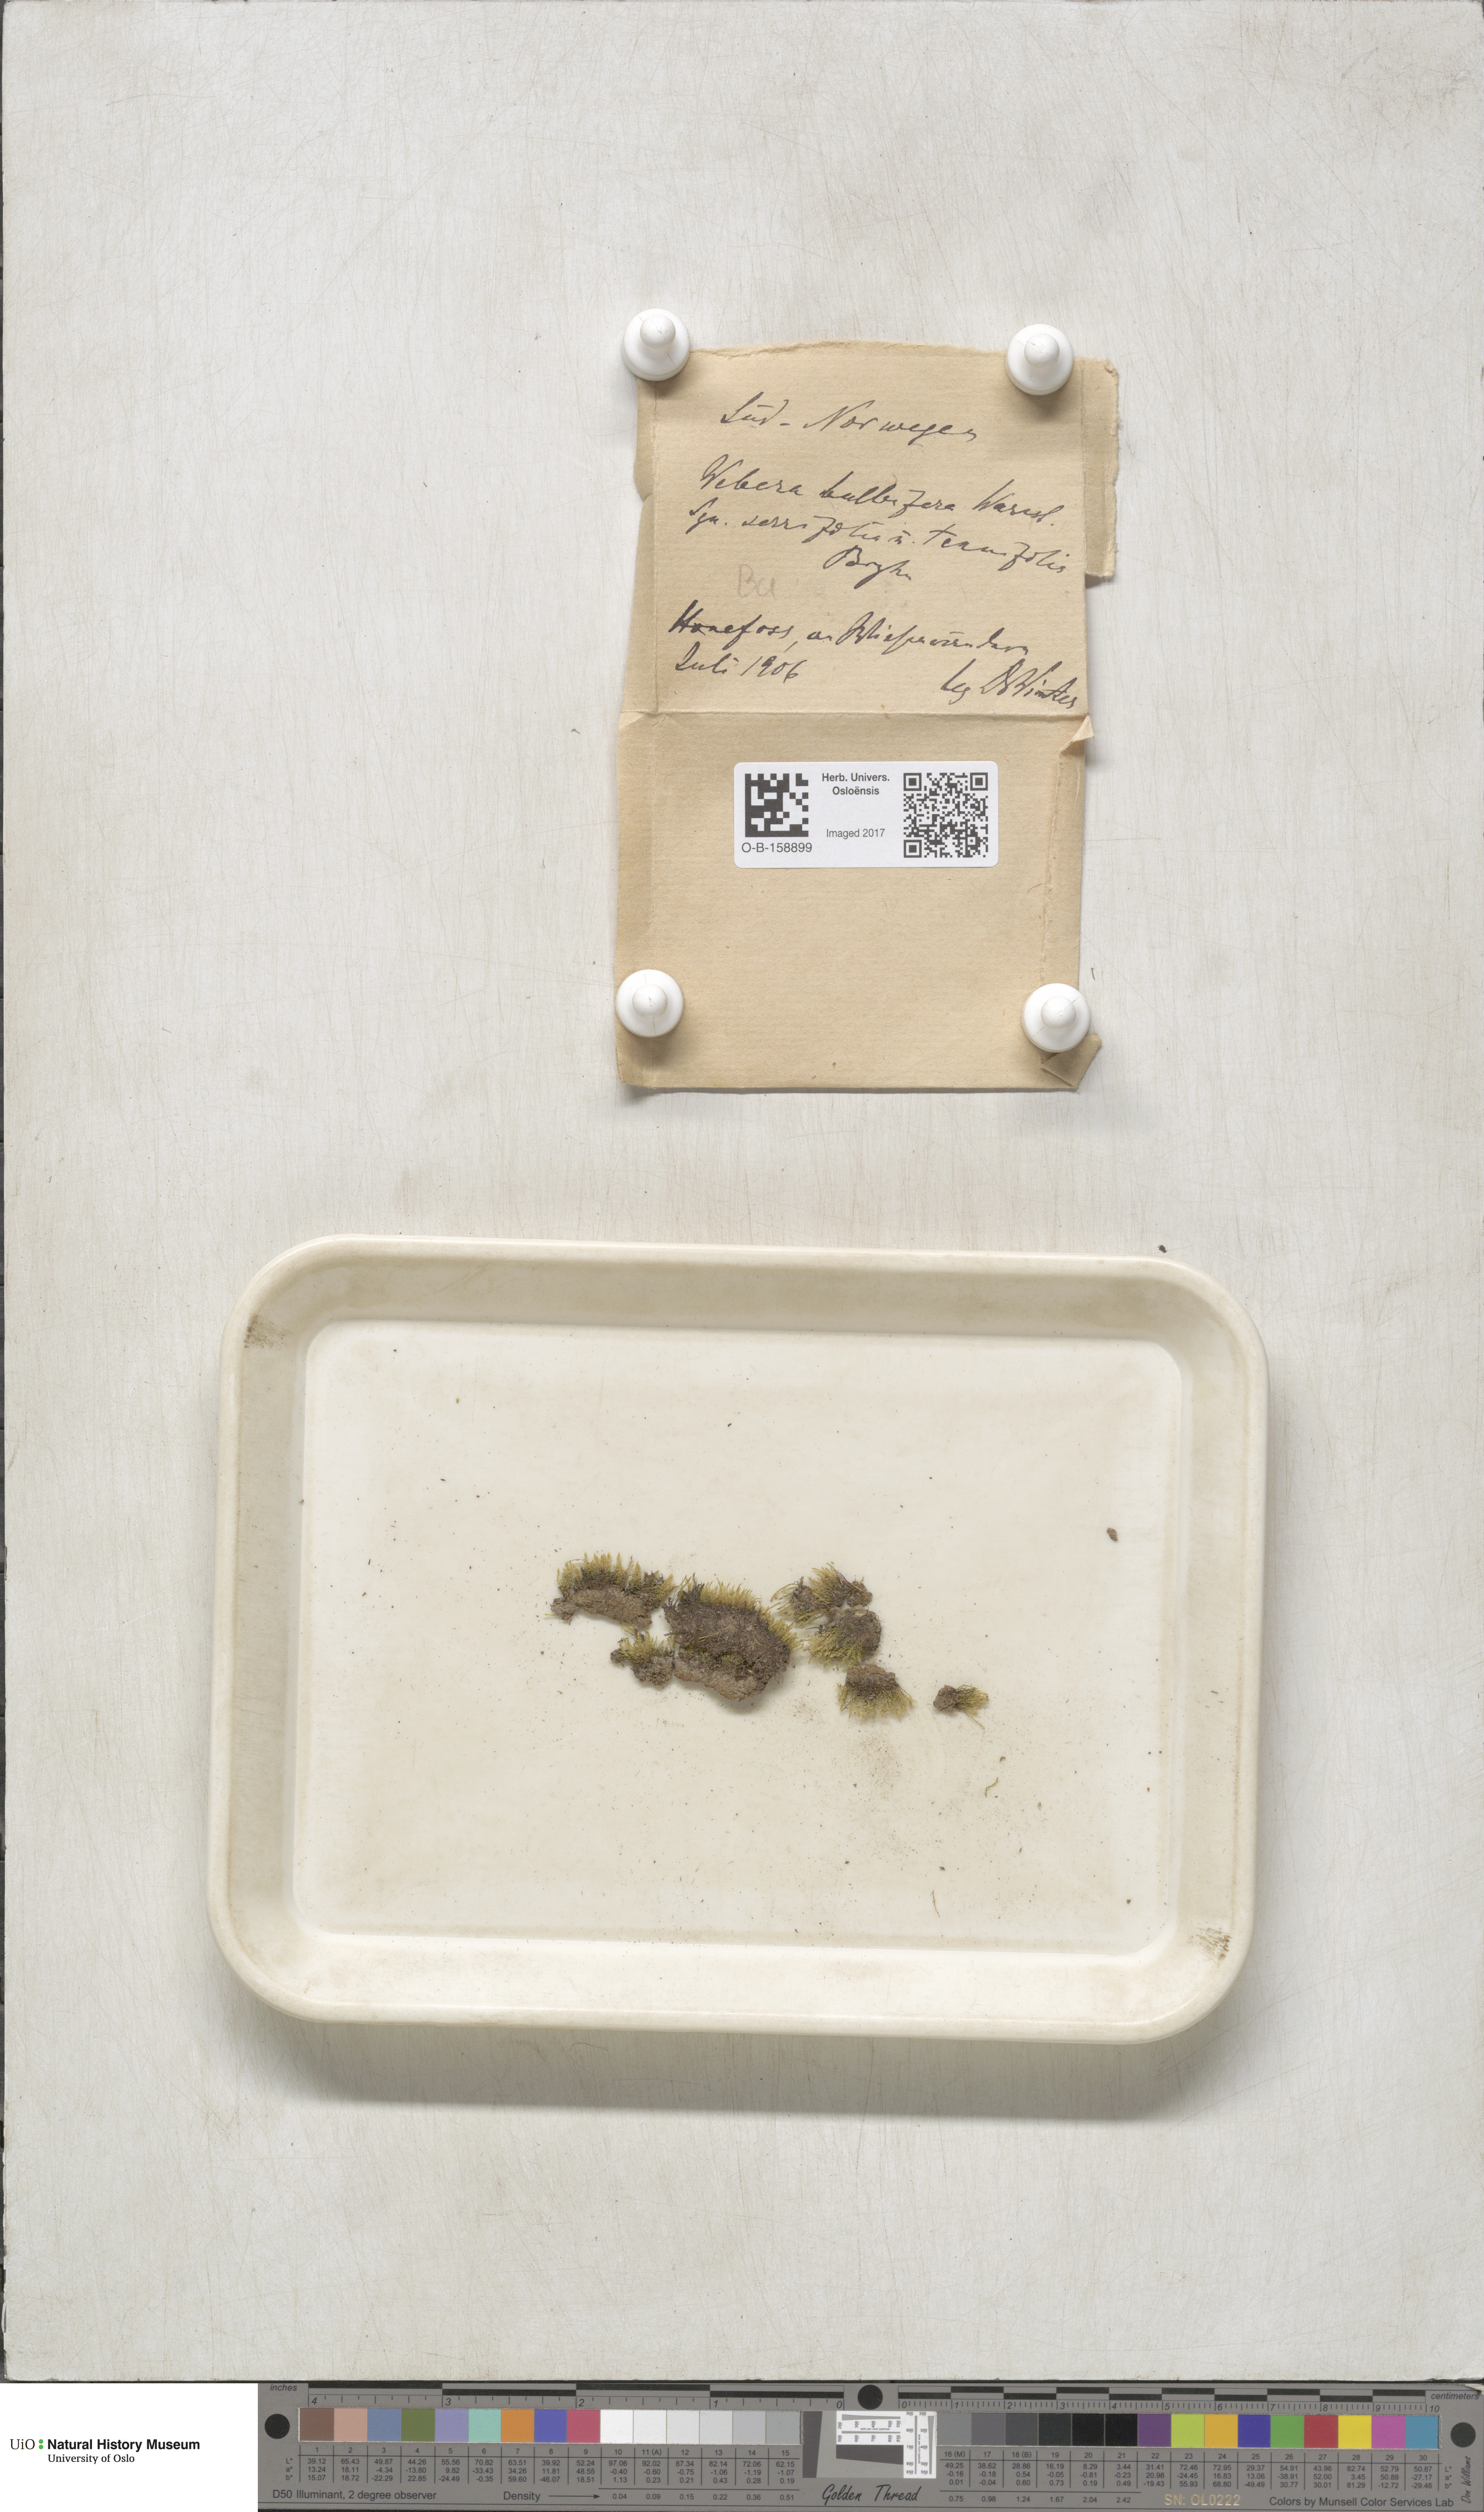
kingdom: Plantae
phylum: Bryophyta
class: Bryopsida
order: Bryales
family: Mniaceae
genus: Pohlia
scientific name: Pohlia bulbifera
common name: Blunt-bud nodding moss
